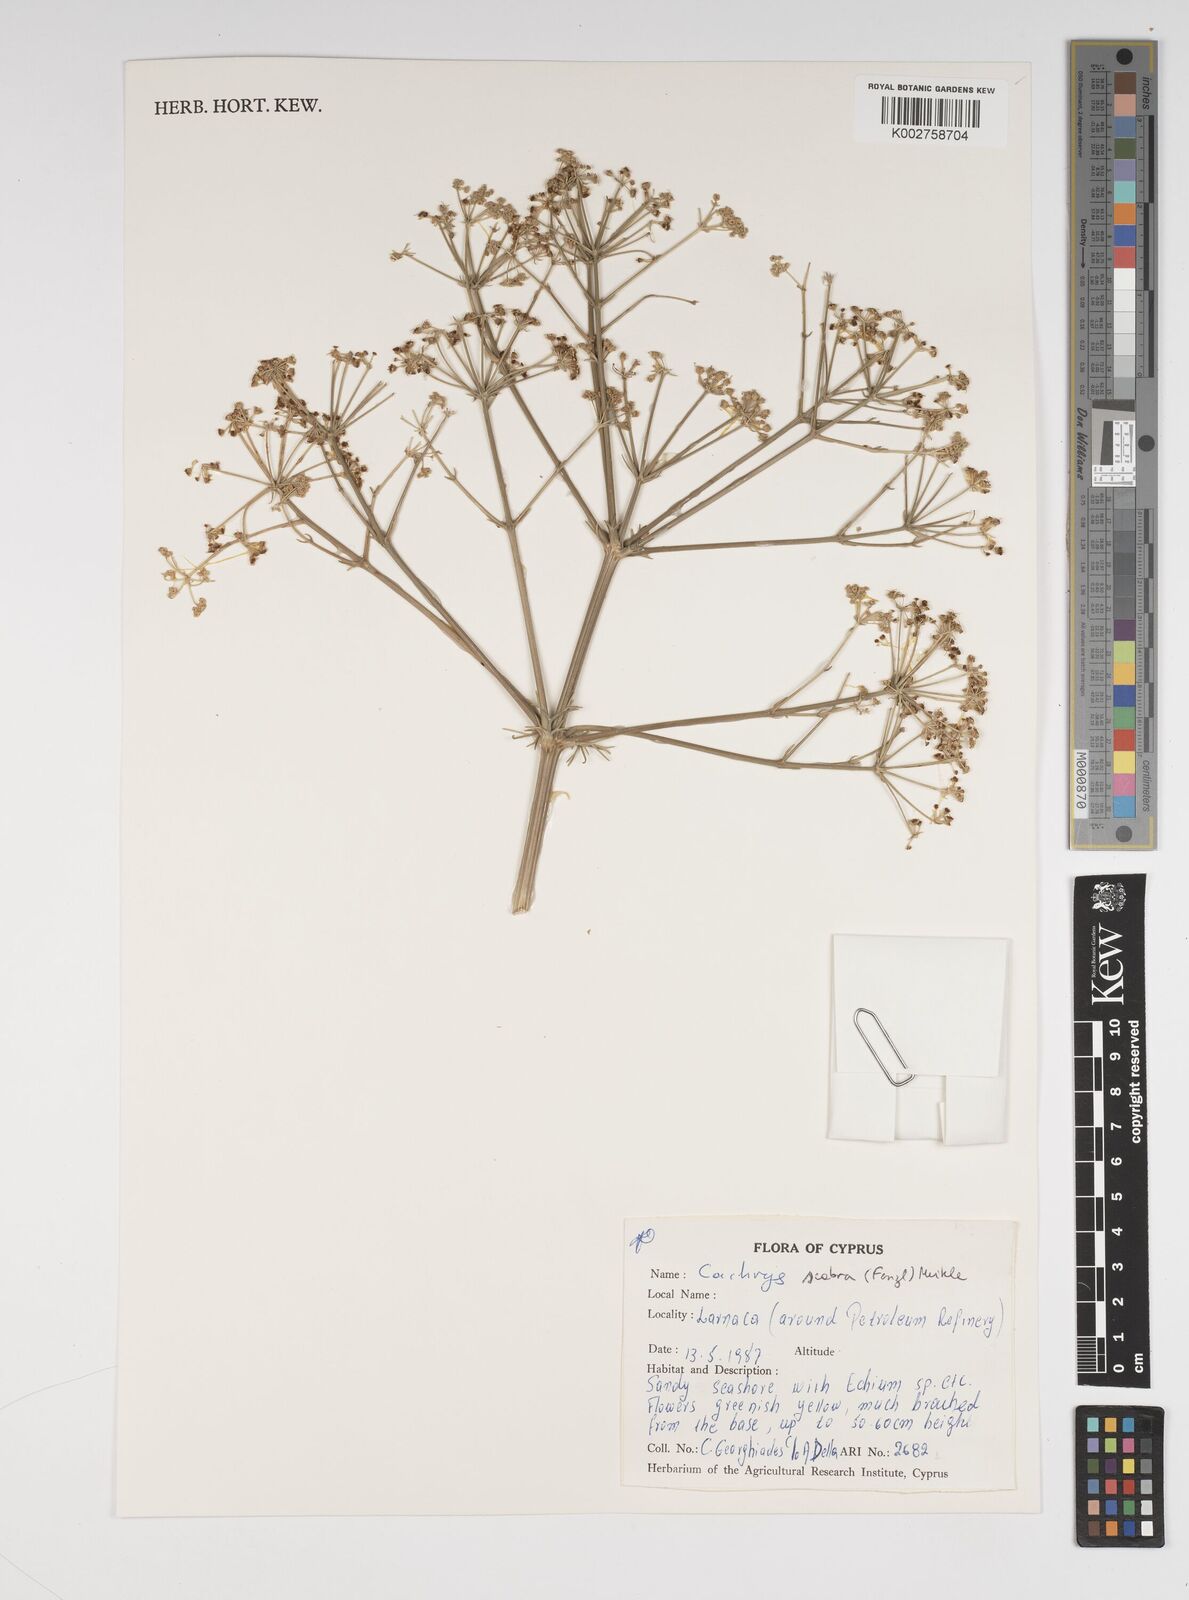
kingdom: Plantae
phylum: Tracheophyta
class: Magnoliopsida
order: Apiales
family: Apiaceae
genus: Bilacunaria
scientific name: Bilacunaria scabra
